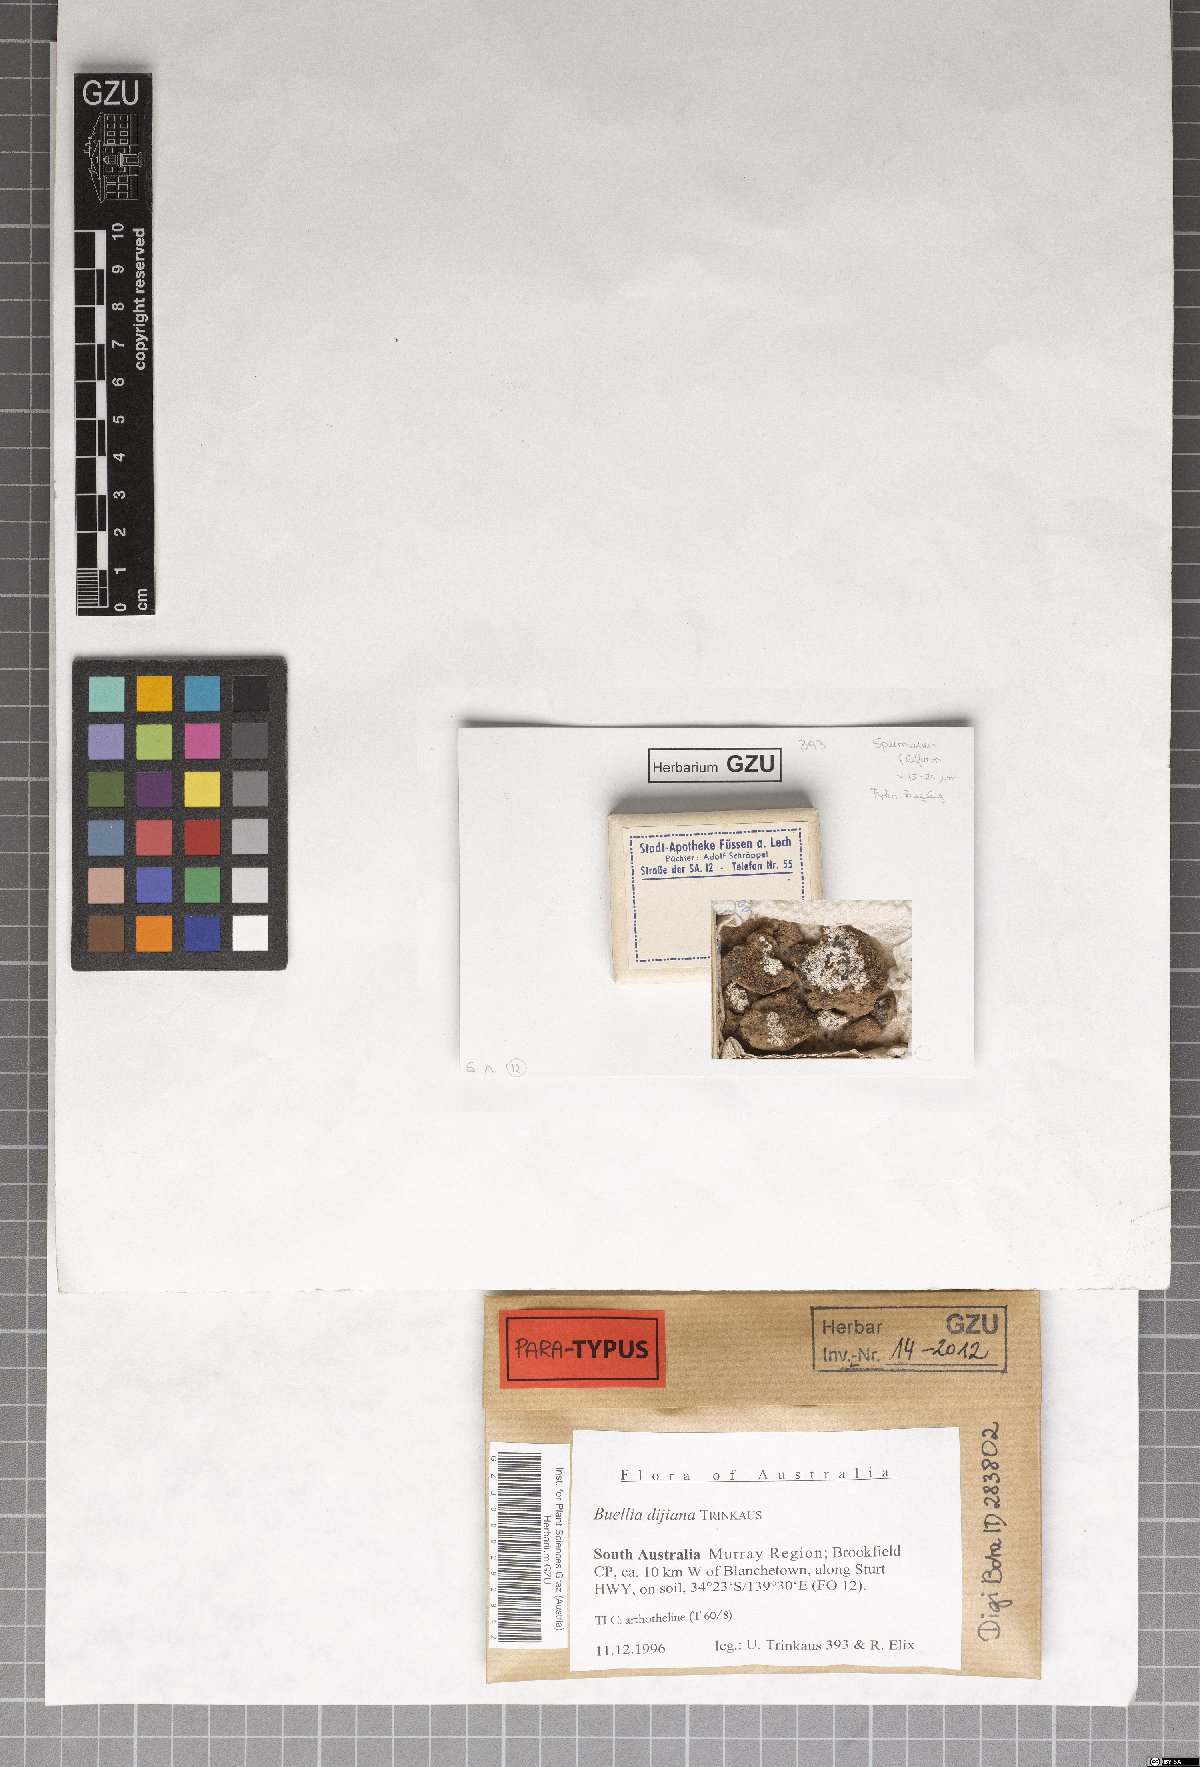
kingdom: Fungi
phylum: Ascomycota
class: Lecanoromycetes
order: Caliciales
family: Caliciaceae
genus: Buellia
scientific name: Buellia dayboroana
